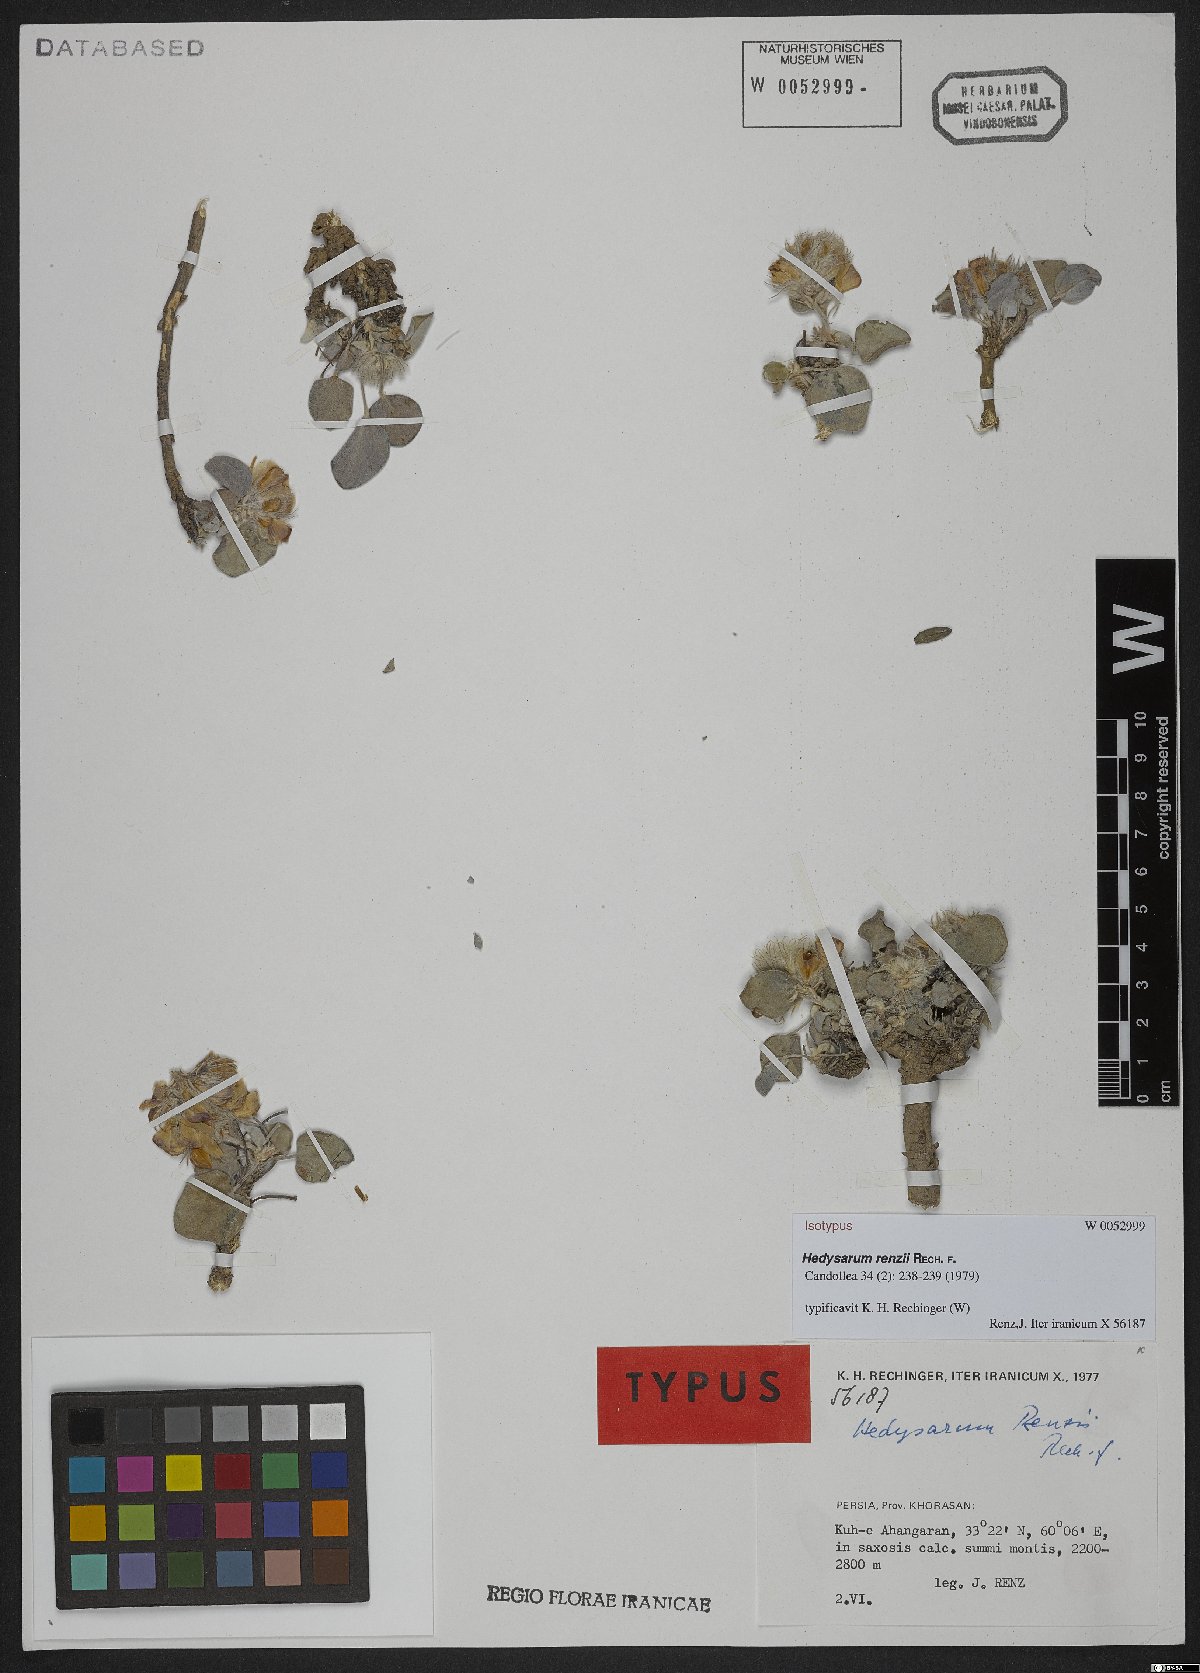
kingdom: Plantae
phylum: Tracheophyta
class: Magnoliopsida
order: Fabales
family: Fabaceae
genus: Hedysarum
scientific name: Hedysarum renzii
